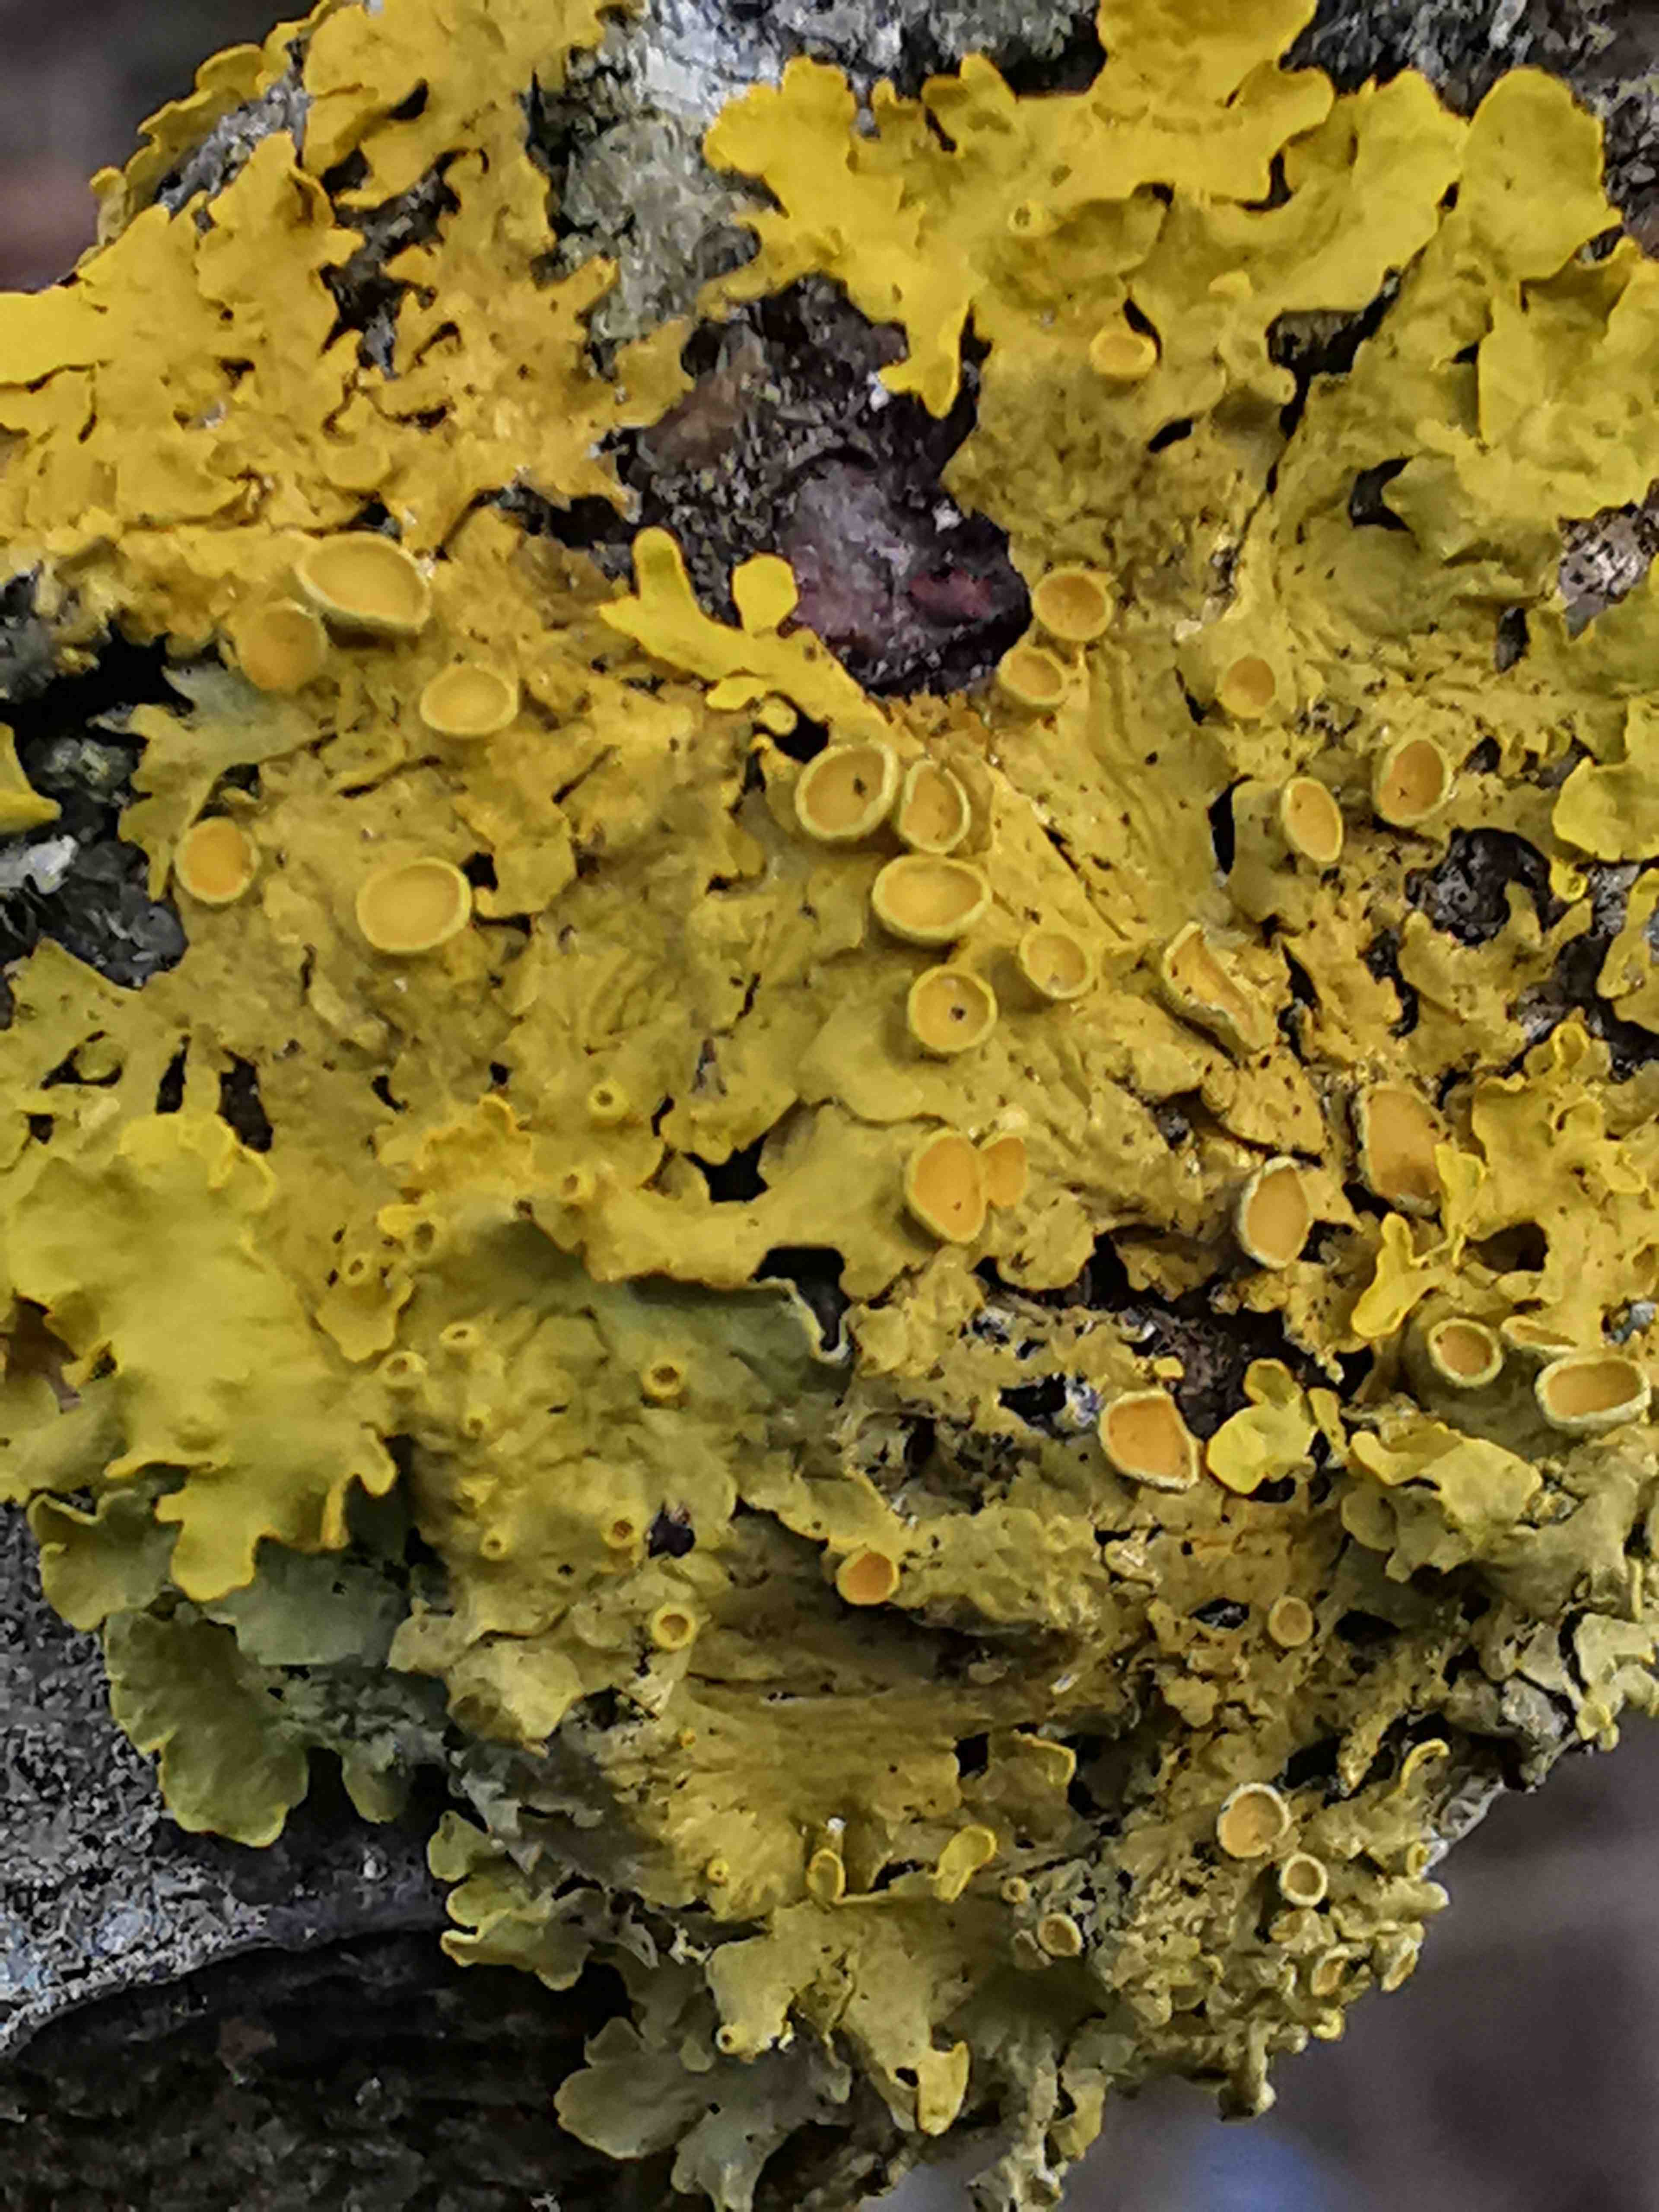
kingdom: Fungi
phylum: Ascomycota
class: Lecanoromycetes
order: Teloschistales
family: Teloschistaceae
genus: Xanthoria
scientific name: Xanthoria parietina
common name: almindelig væggelav
